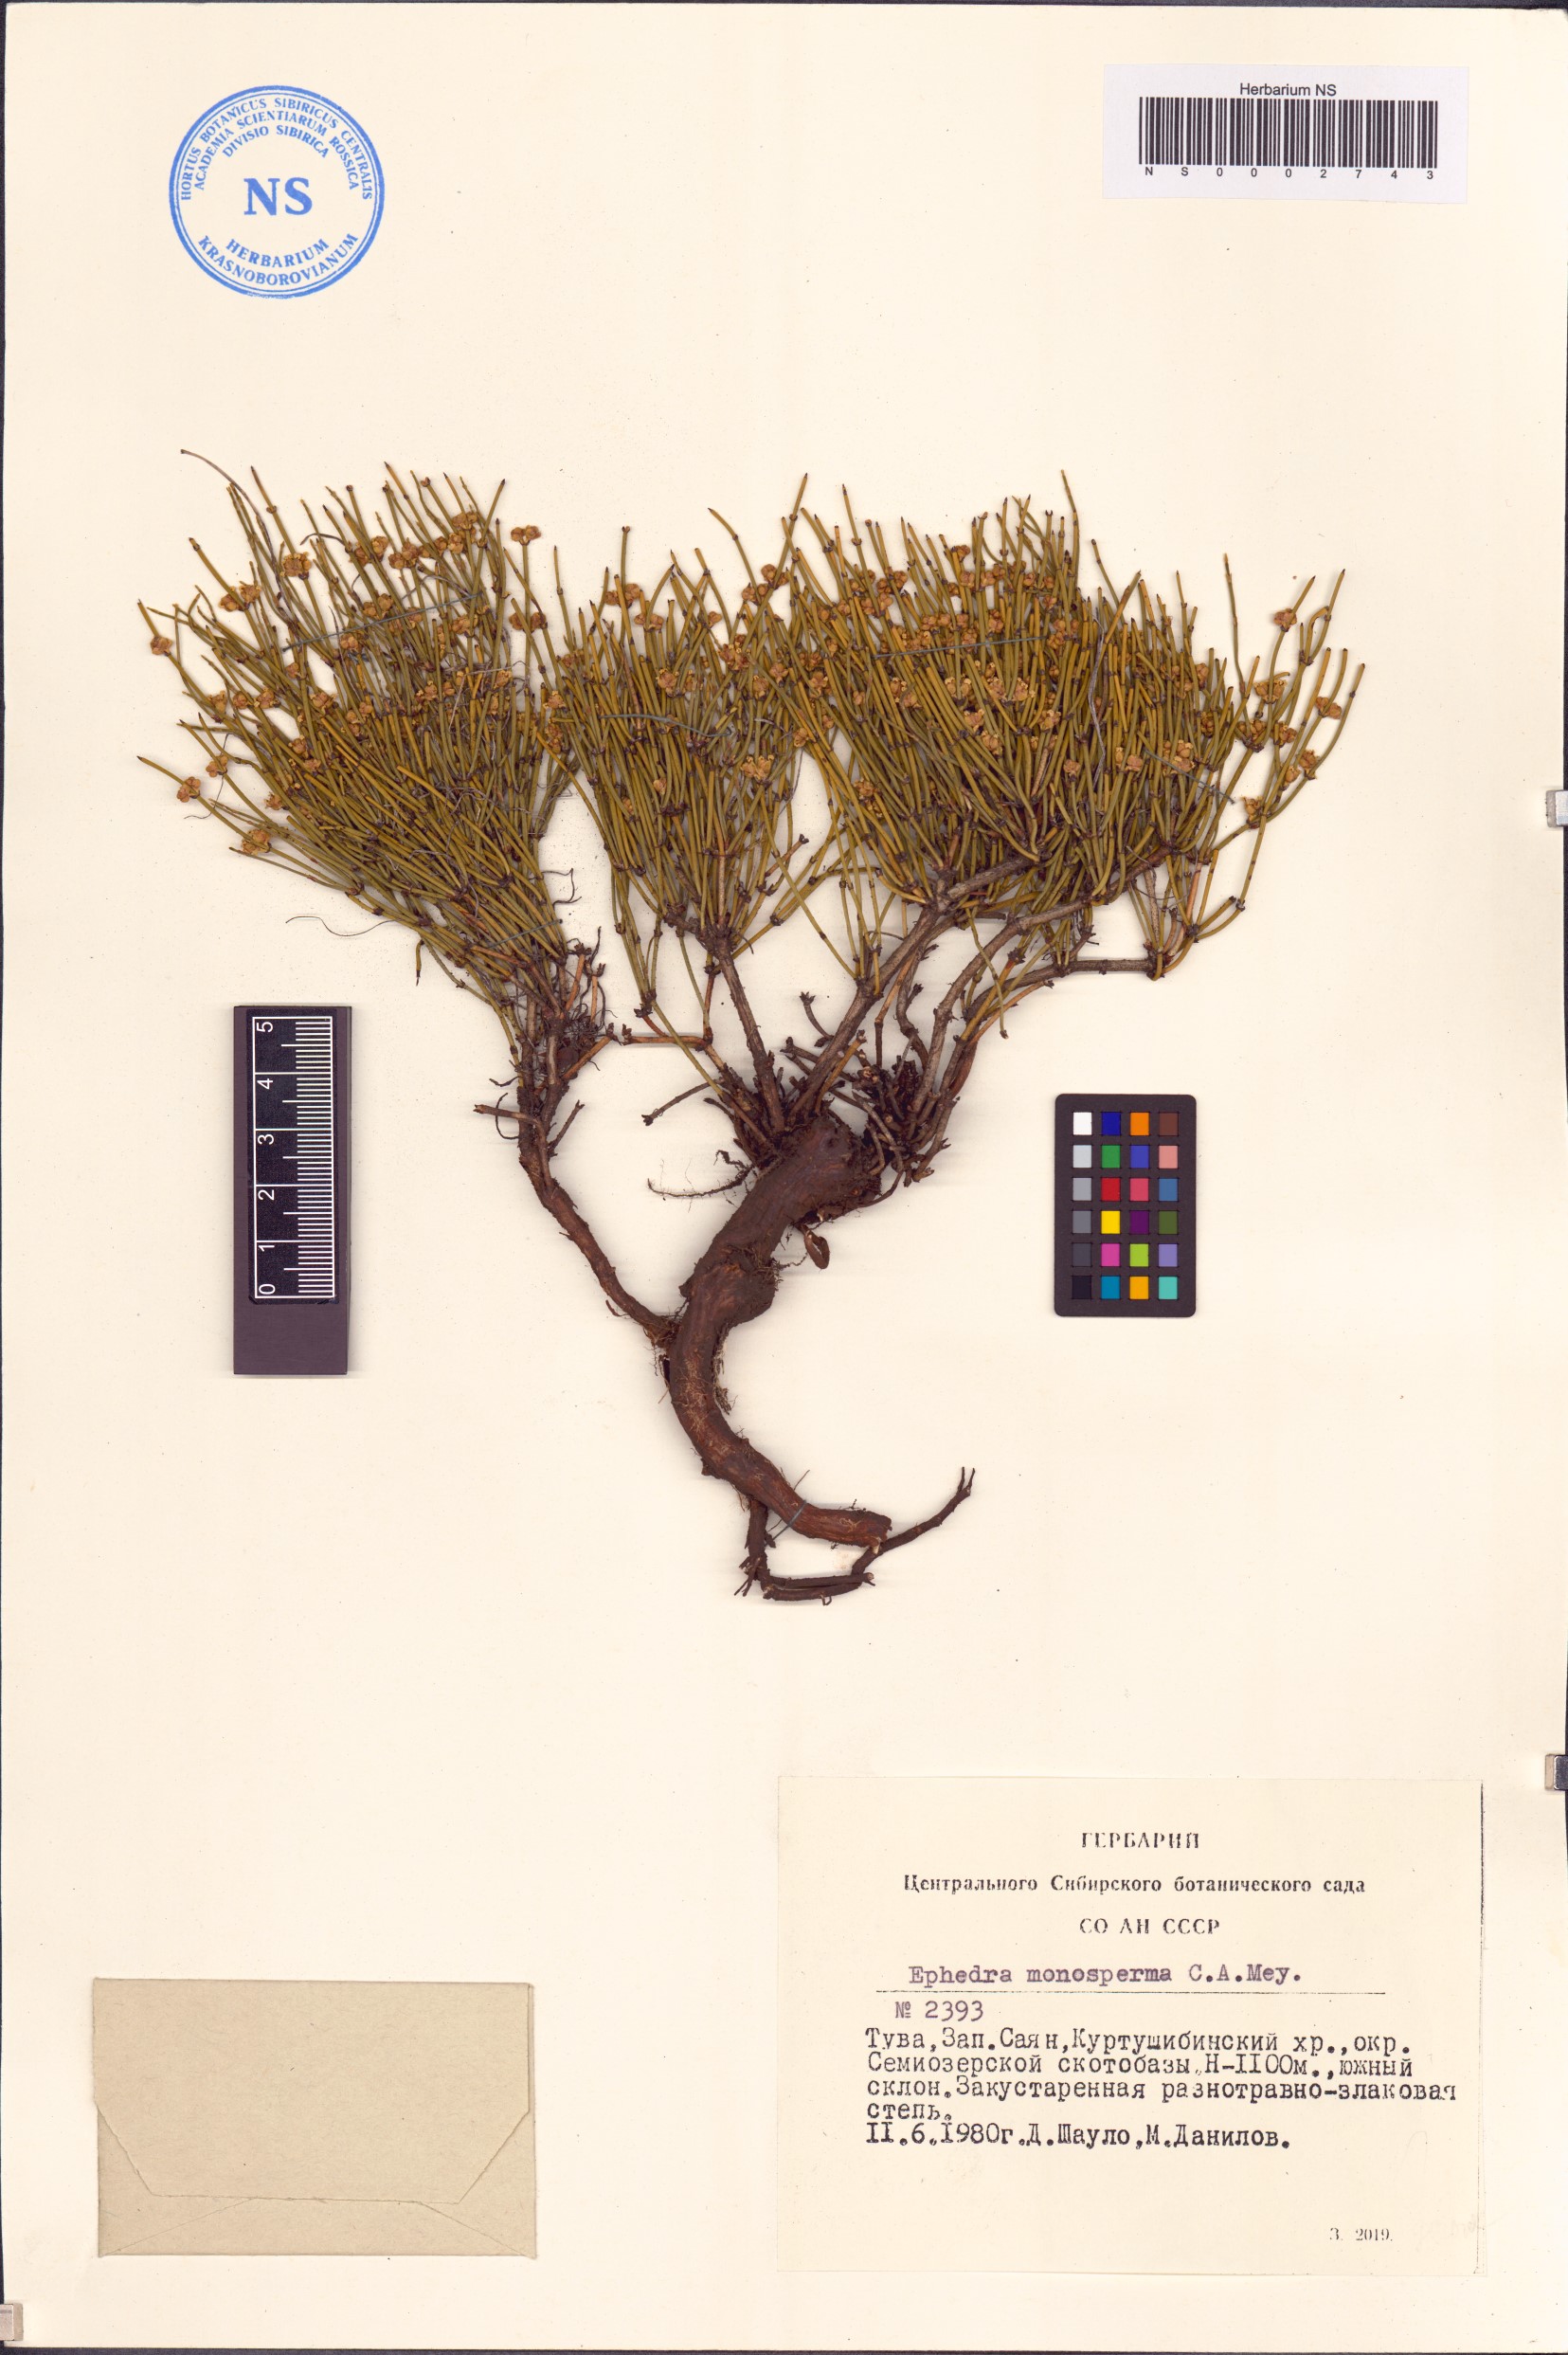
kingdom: Plantae
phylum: Tracheophyta
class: Gnetopsida
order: Ephedrales
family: Ephedraceae
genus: Ephedra
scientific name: Ephedra monosperma
